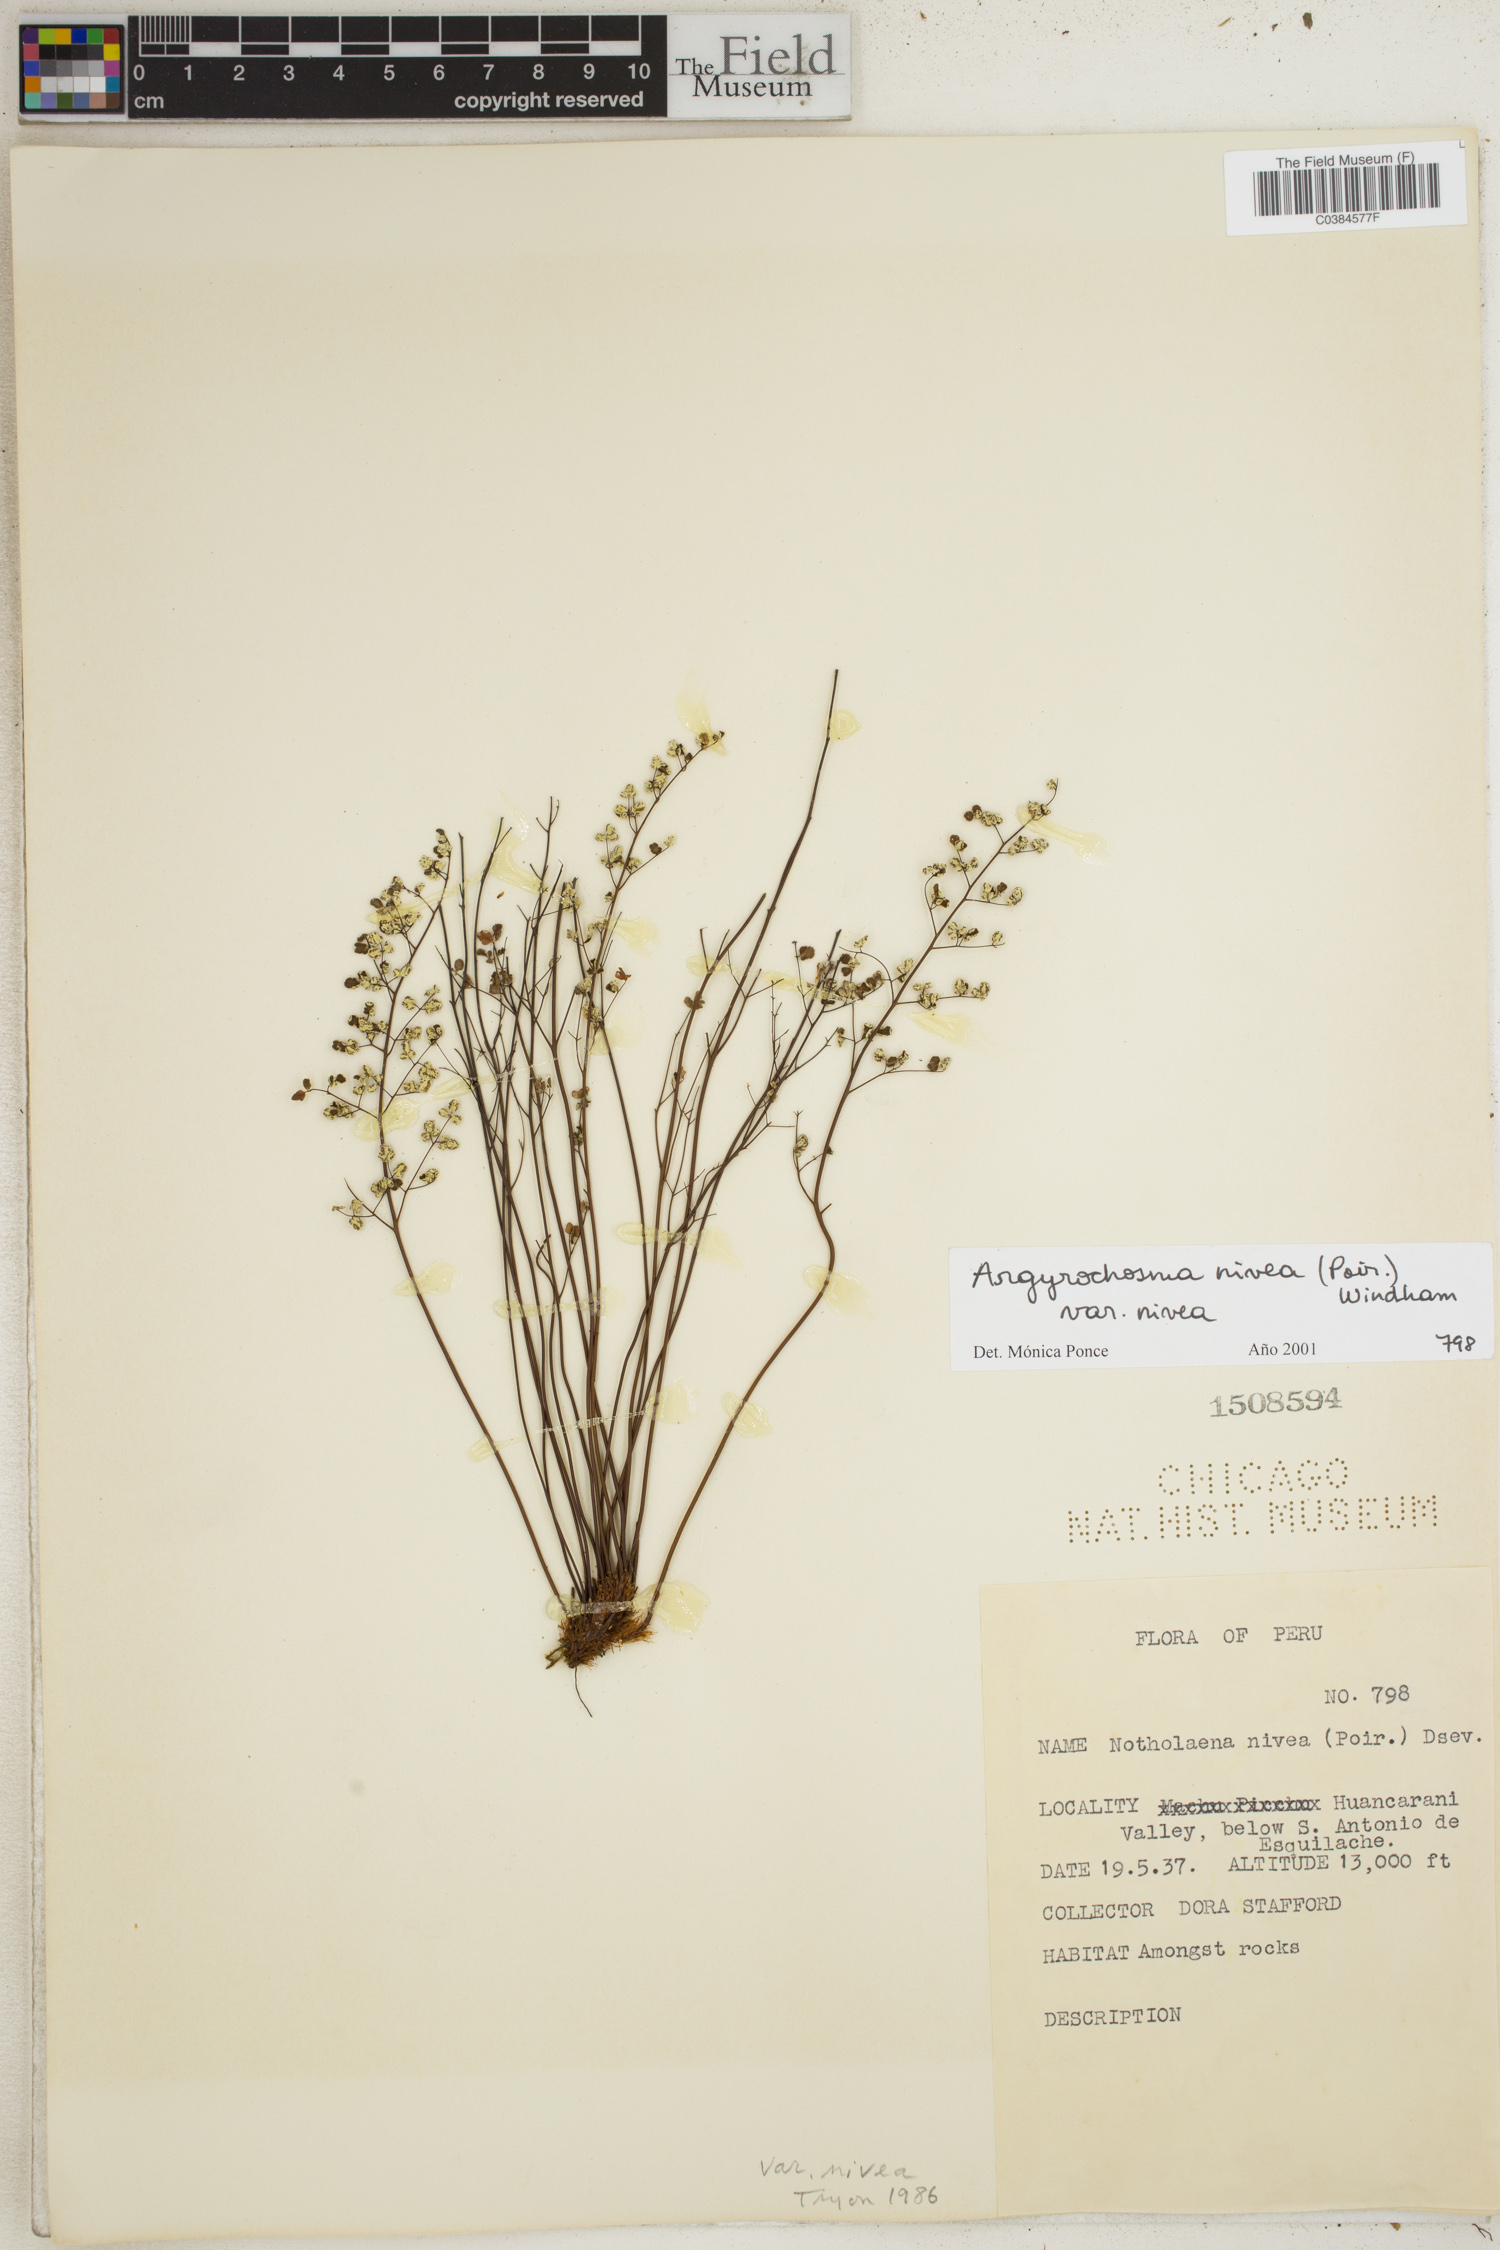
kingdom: Plantae
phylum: Tracheophyta
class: Polypodiopsida
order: Polypodiales
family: Pteridaceae
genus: Argyrochosma
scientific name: Argyrochosma nivea
